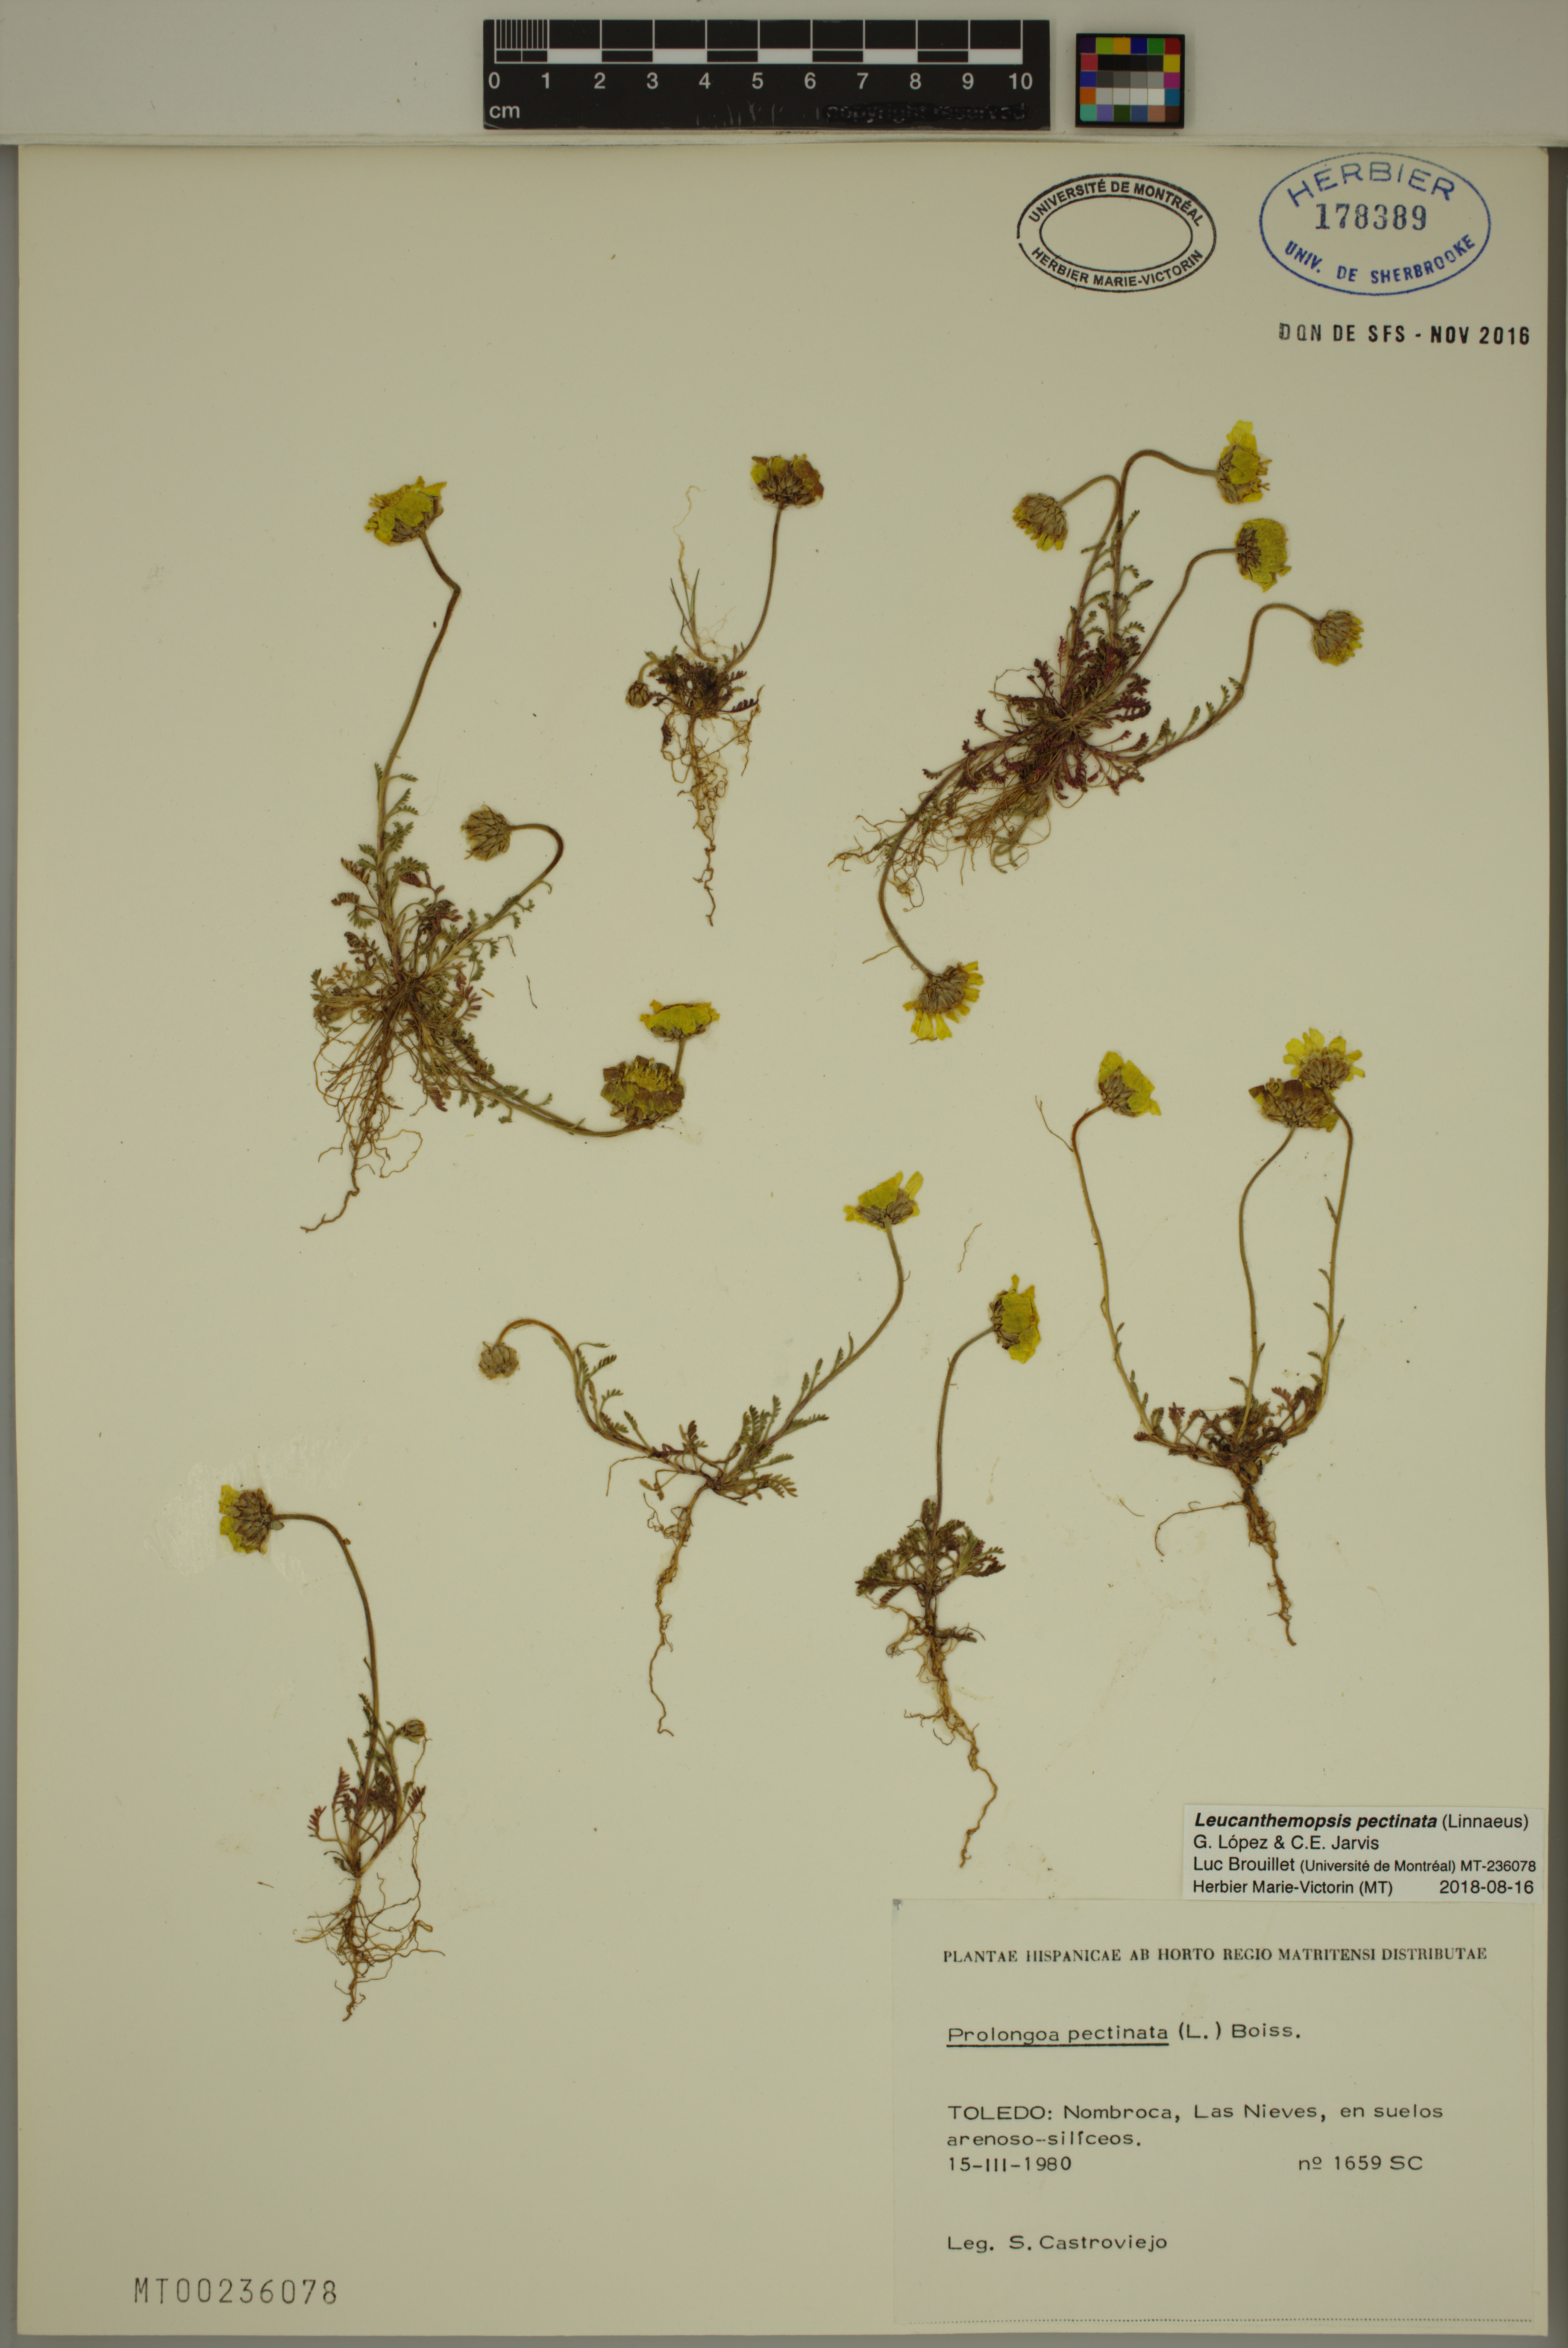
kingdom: Plantae
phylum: Tracheophyta
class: Magnoliopsida
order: Asterales
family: Asteraceae
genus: Leucanthemopsis
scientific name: Leucanthemopsis pectinata
